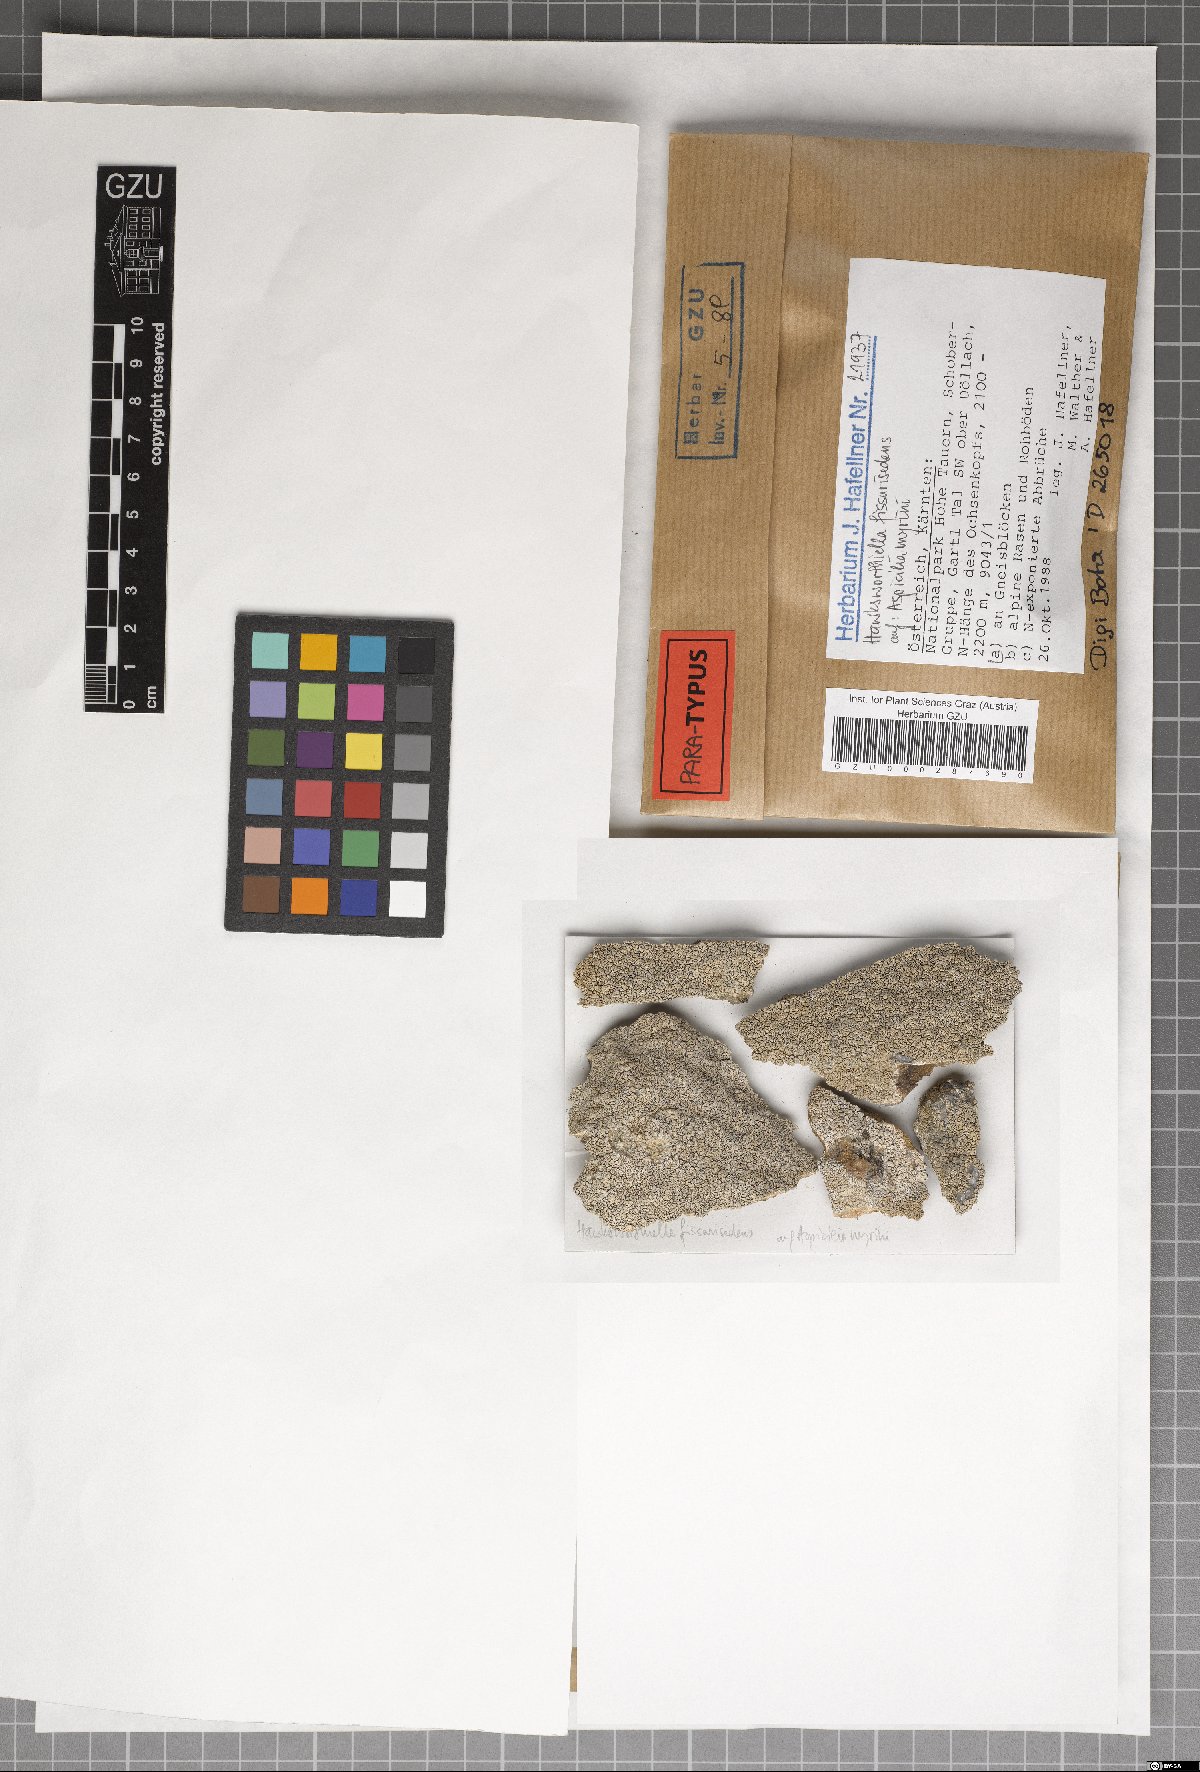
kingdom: Fungi
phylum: Ascomycota
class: Eurotiomycetes
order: Verrucariales
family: Adelococcaceae
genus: Sagediopsis
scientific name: Sagediopsis fissurisedens
